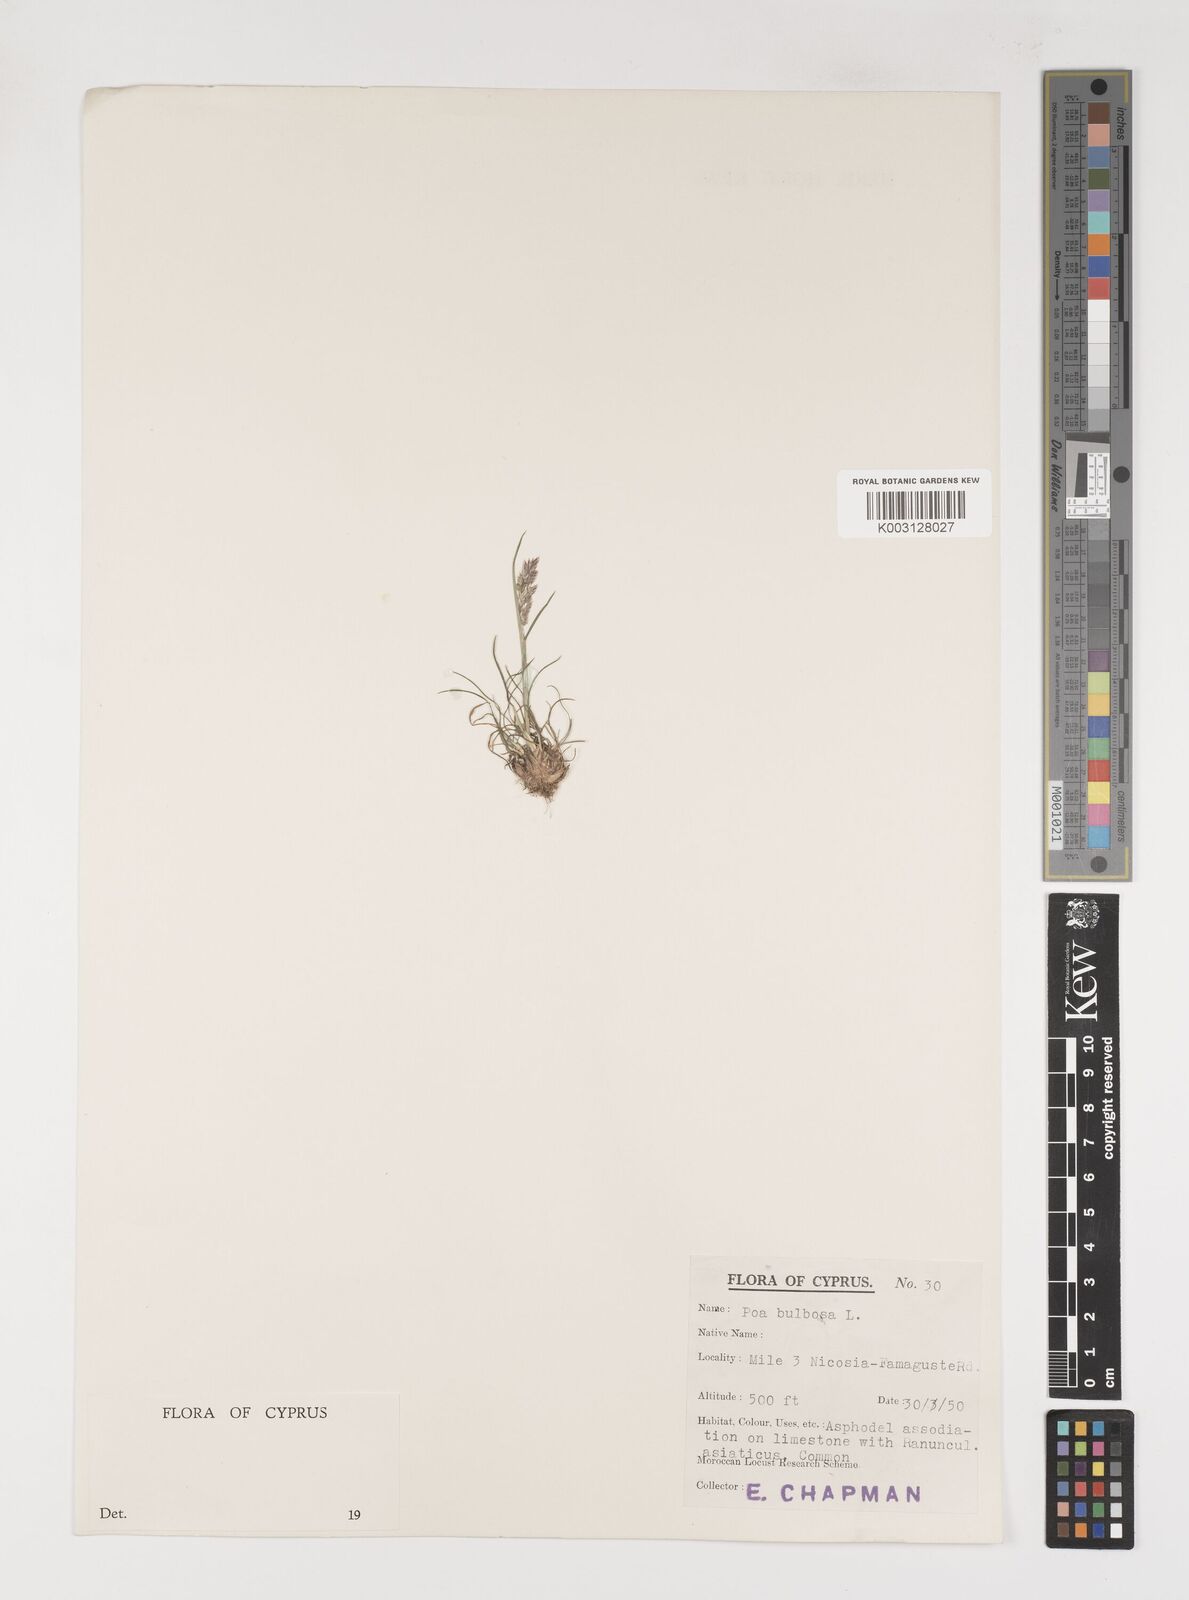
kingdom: Plantae
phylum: Tracheophyta
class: Liliopsida
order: Poales
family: Poaceae
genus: Poa
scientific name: Poa bulbosa
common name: Bulbous bluegrass
